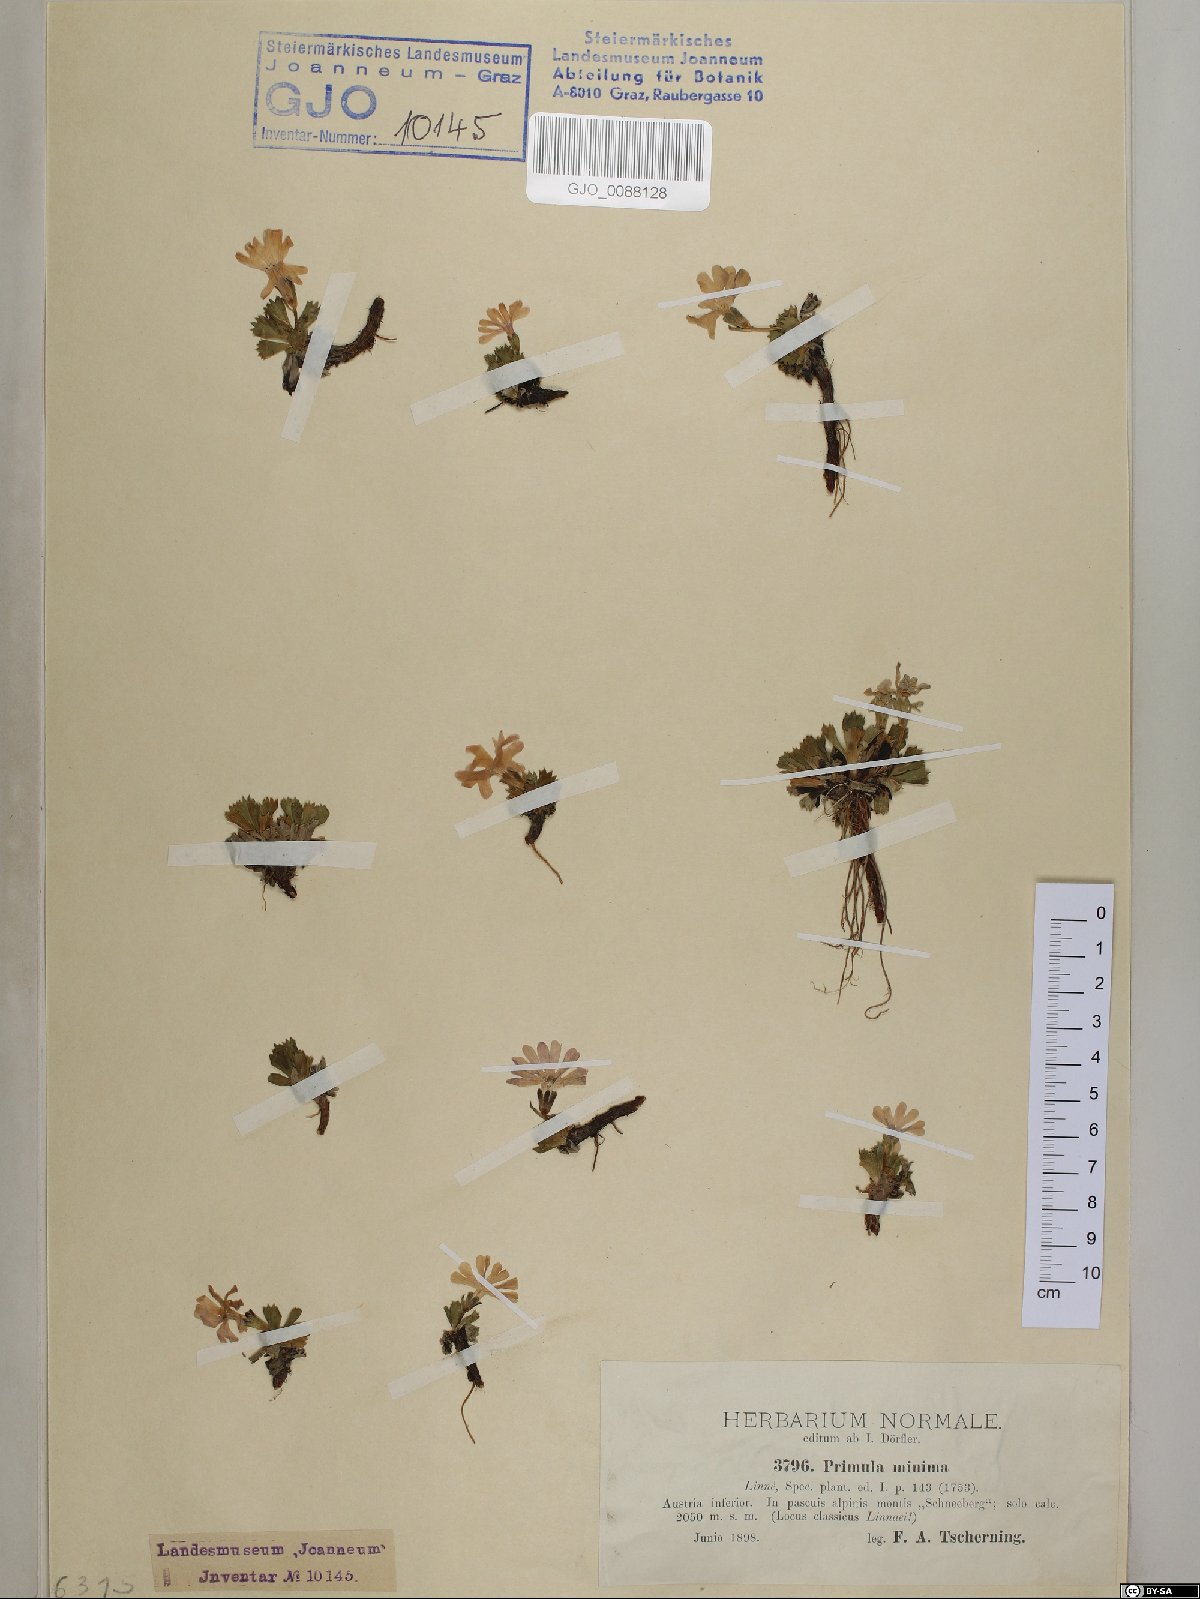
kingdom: Plantae
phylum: Tracheophyta
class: Magnoliopsida
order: Ericales
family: Primulaceae
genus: Primula
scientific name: Primula minima
